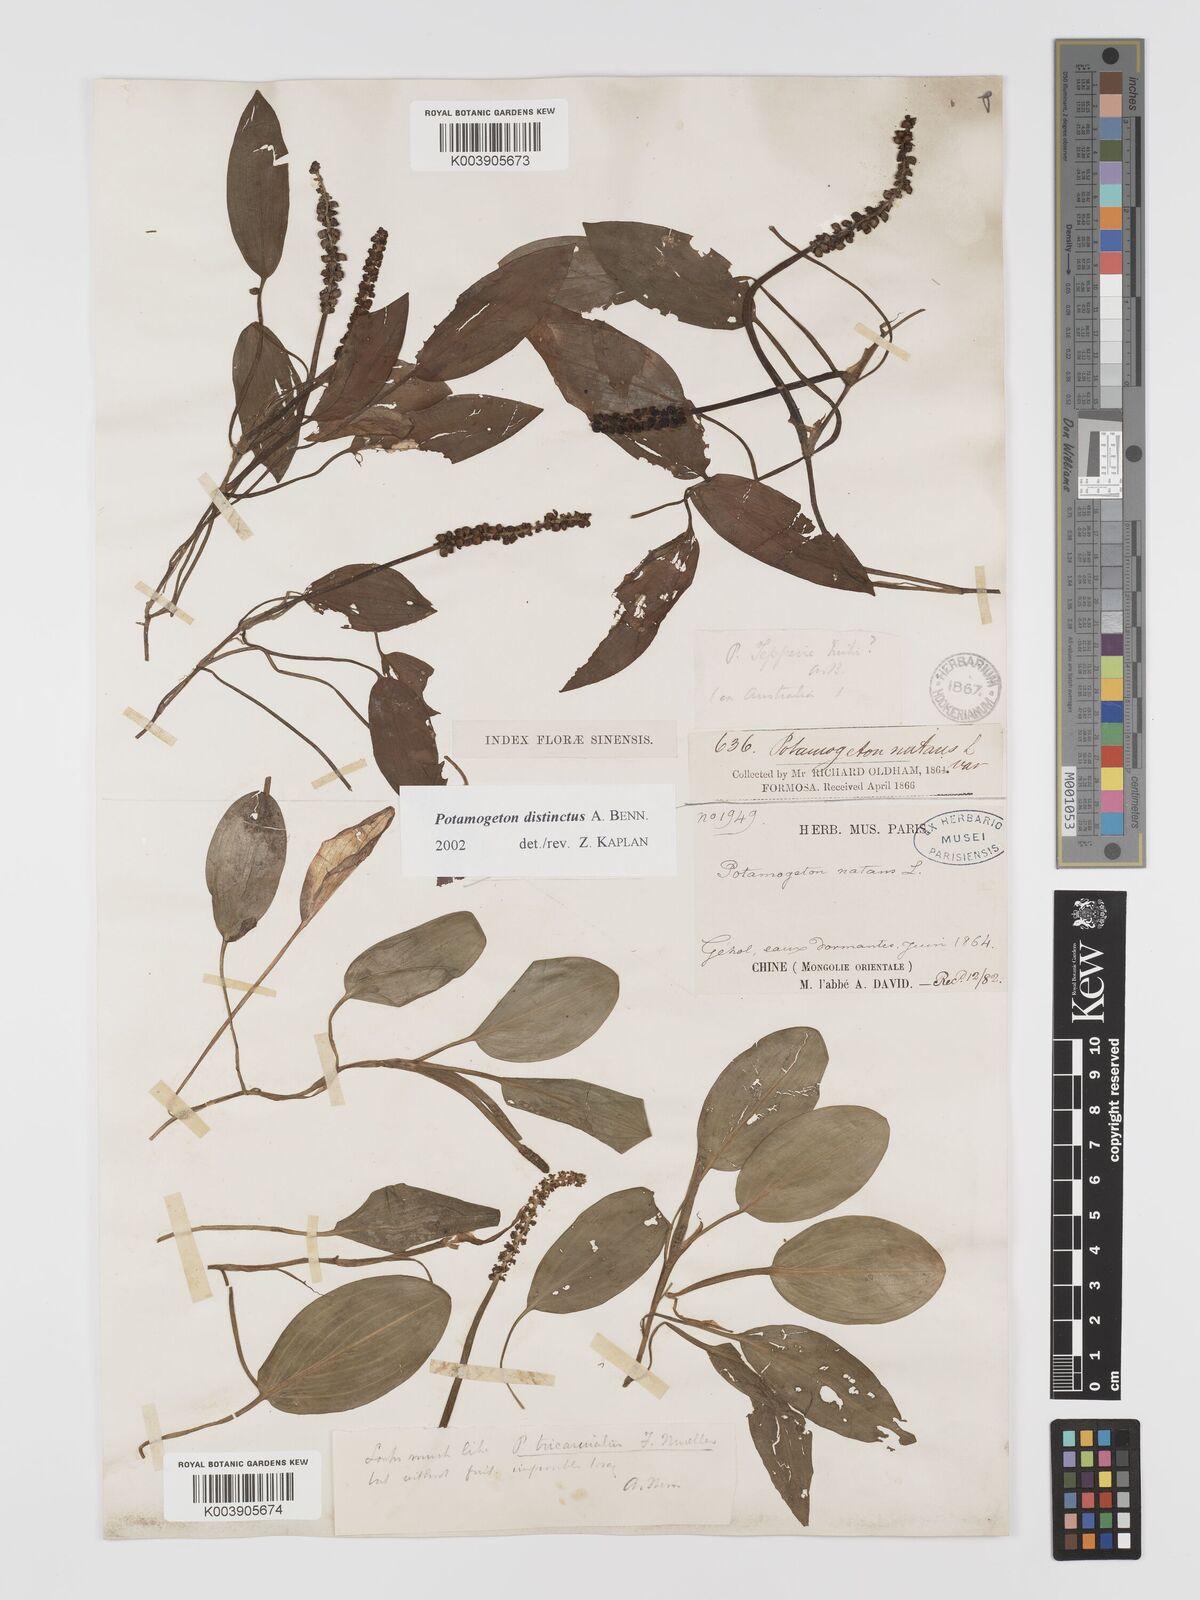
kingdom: Plantae
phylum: Tracheophyta
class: Liliopsida
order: Alismatales
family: Potamogetonaceae
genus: Potamogeton
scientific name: Potamogeton distinctus
